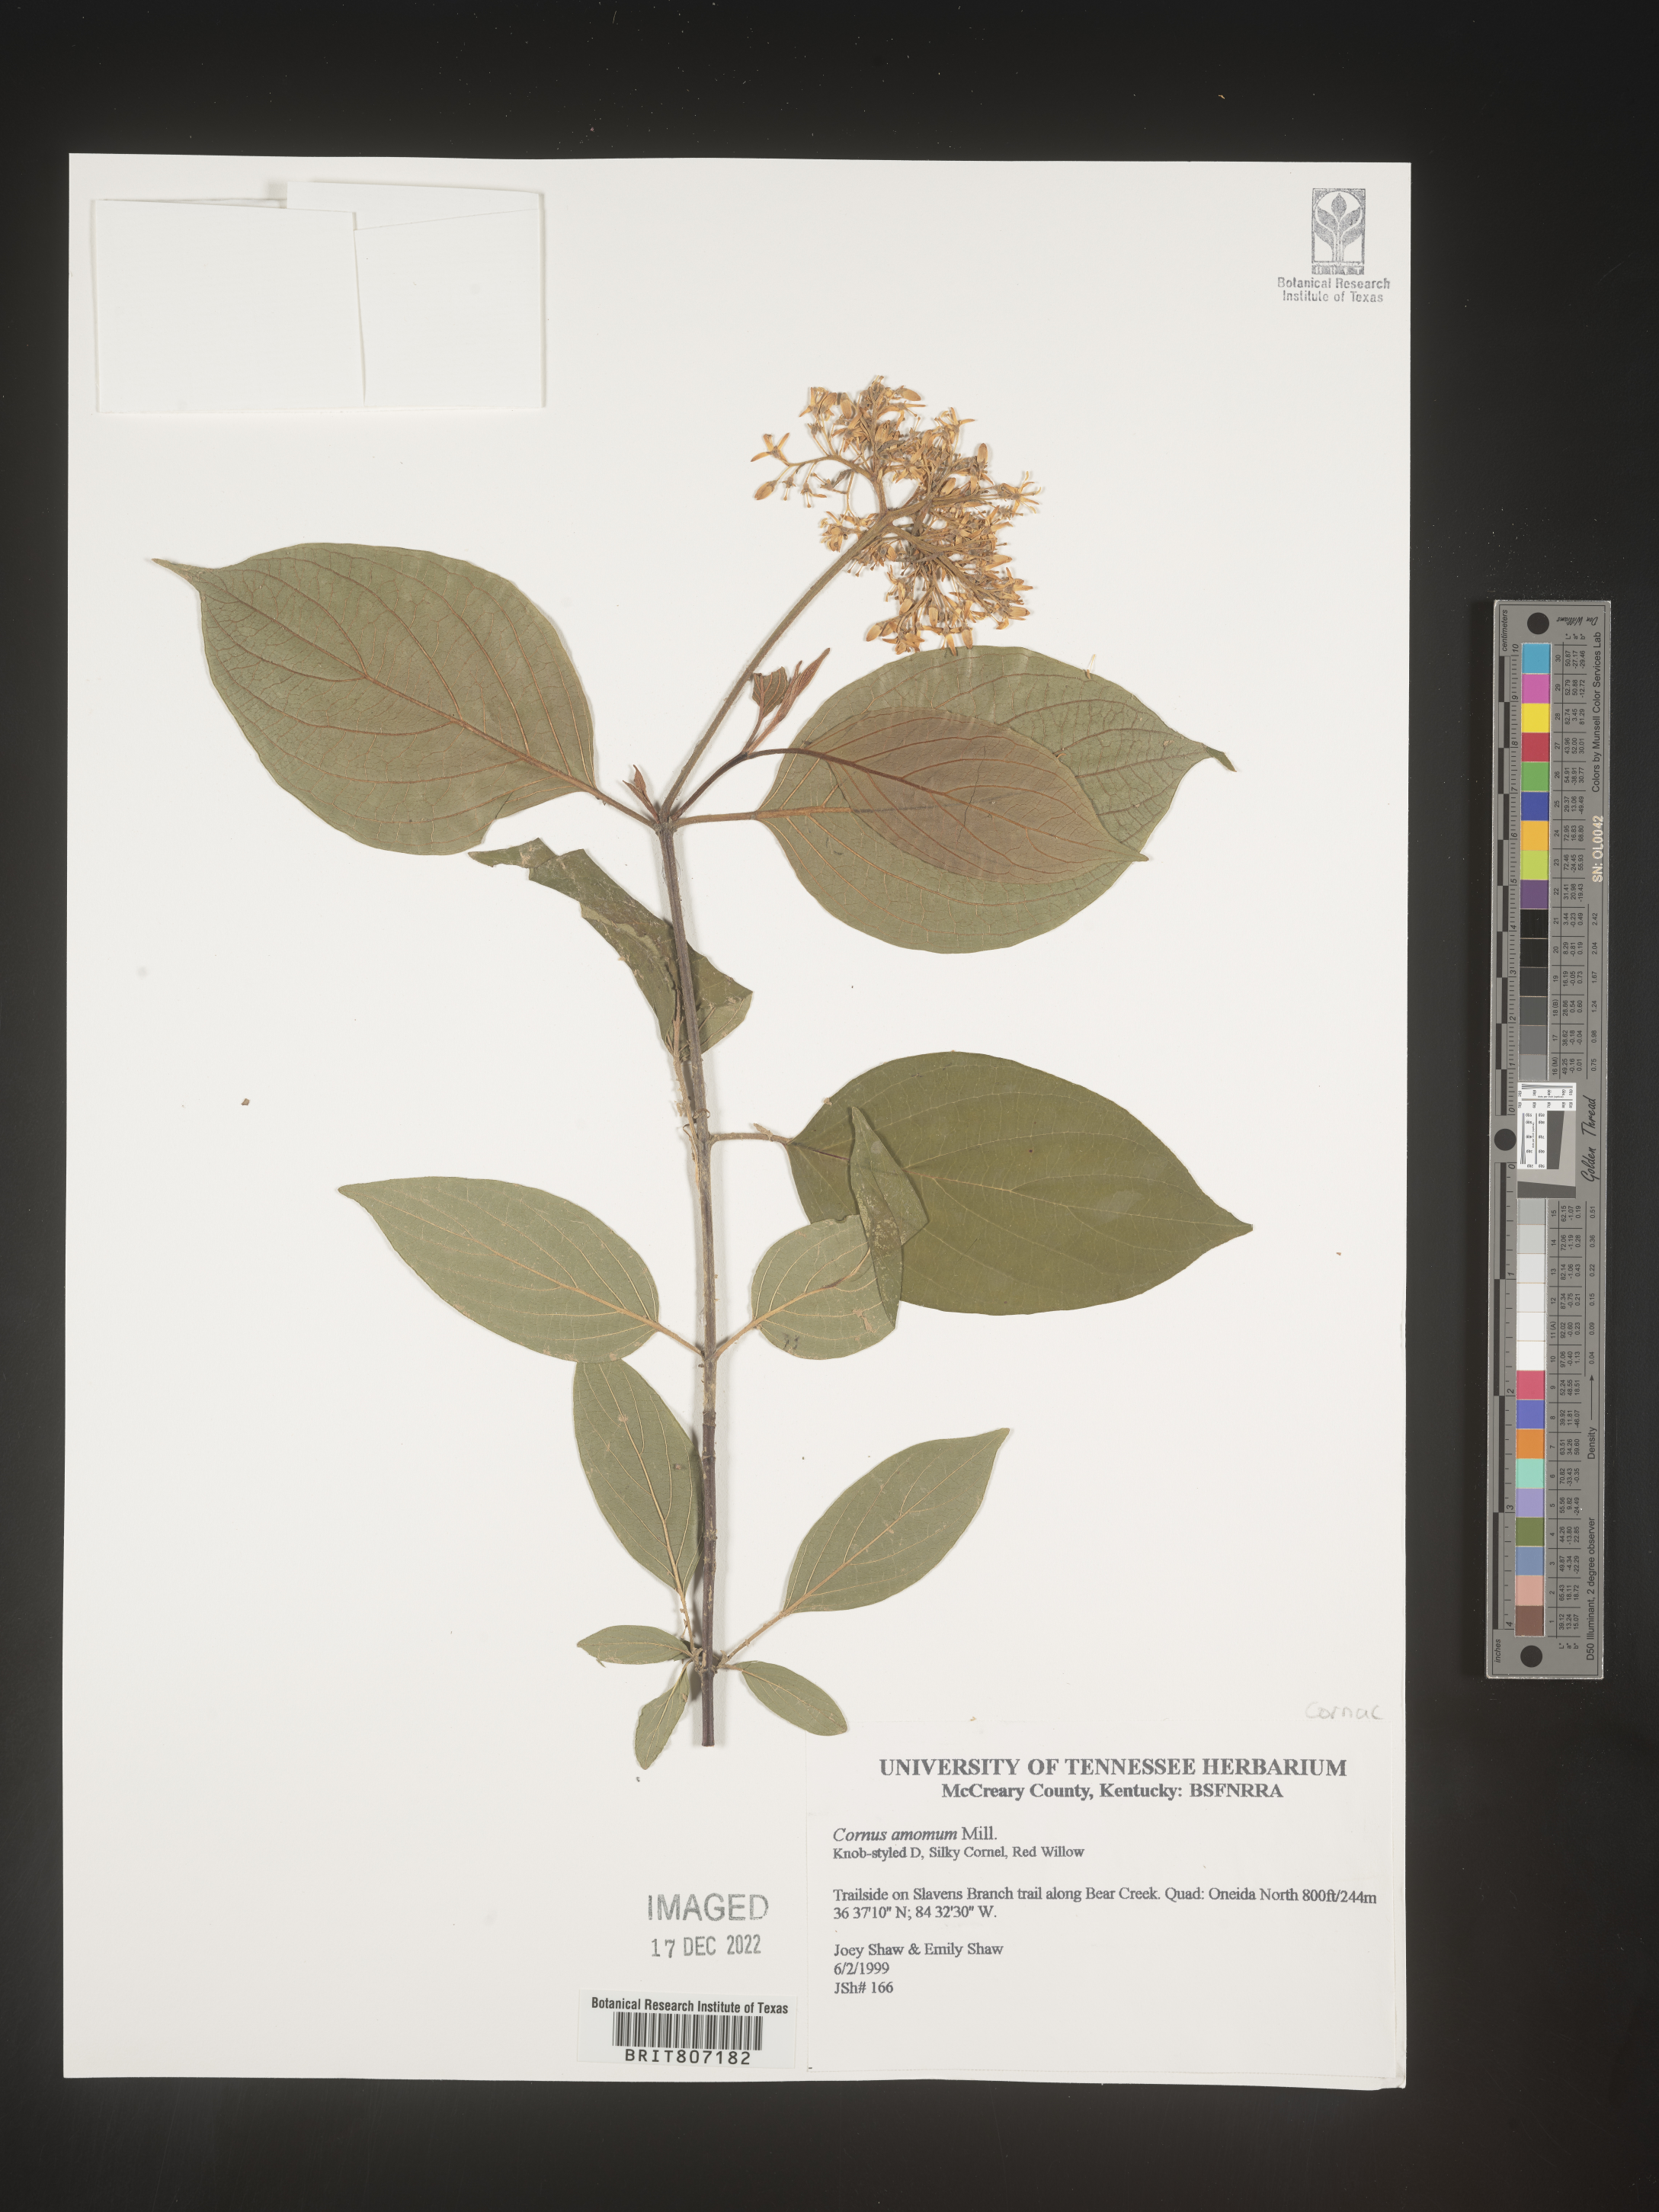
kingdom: Plantae
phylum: Tracheophyta
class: Magnoliopsida
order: Cornales
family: Cornaceae
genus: Cornus
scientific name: Cornus amomum
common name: Silky dogwood
